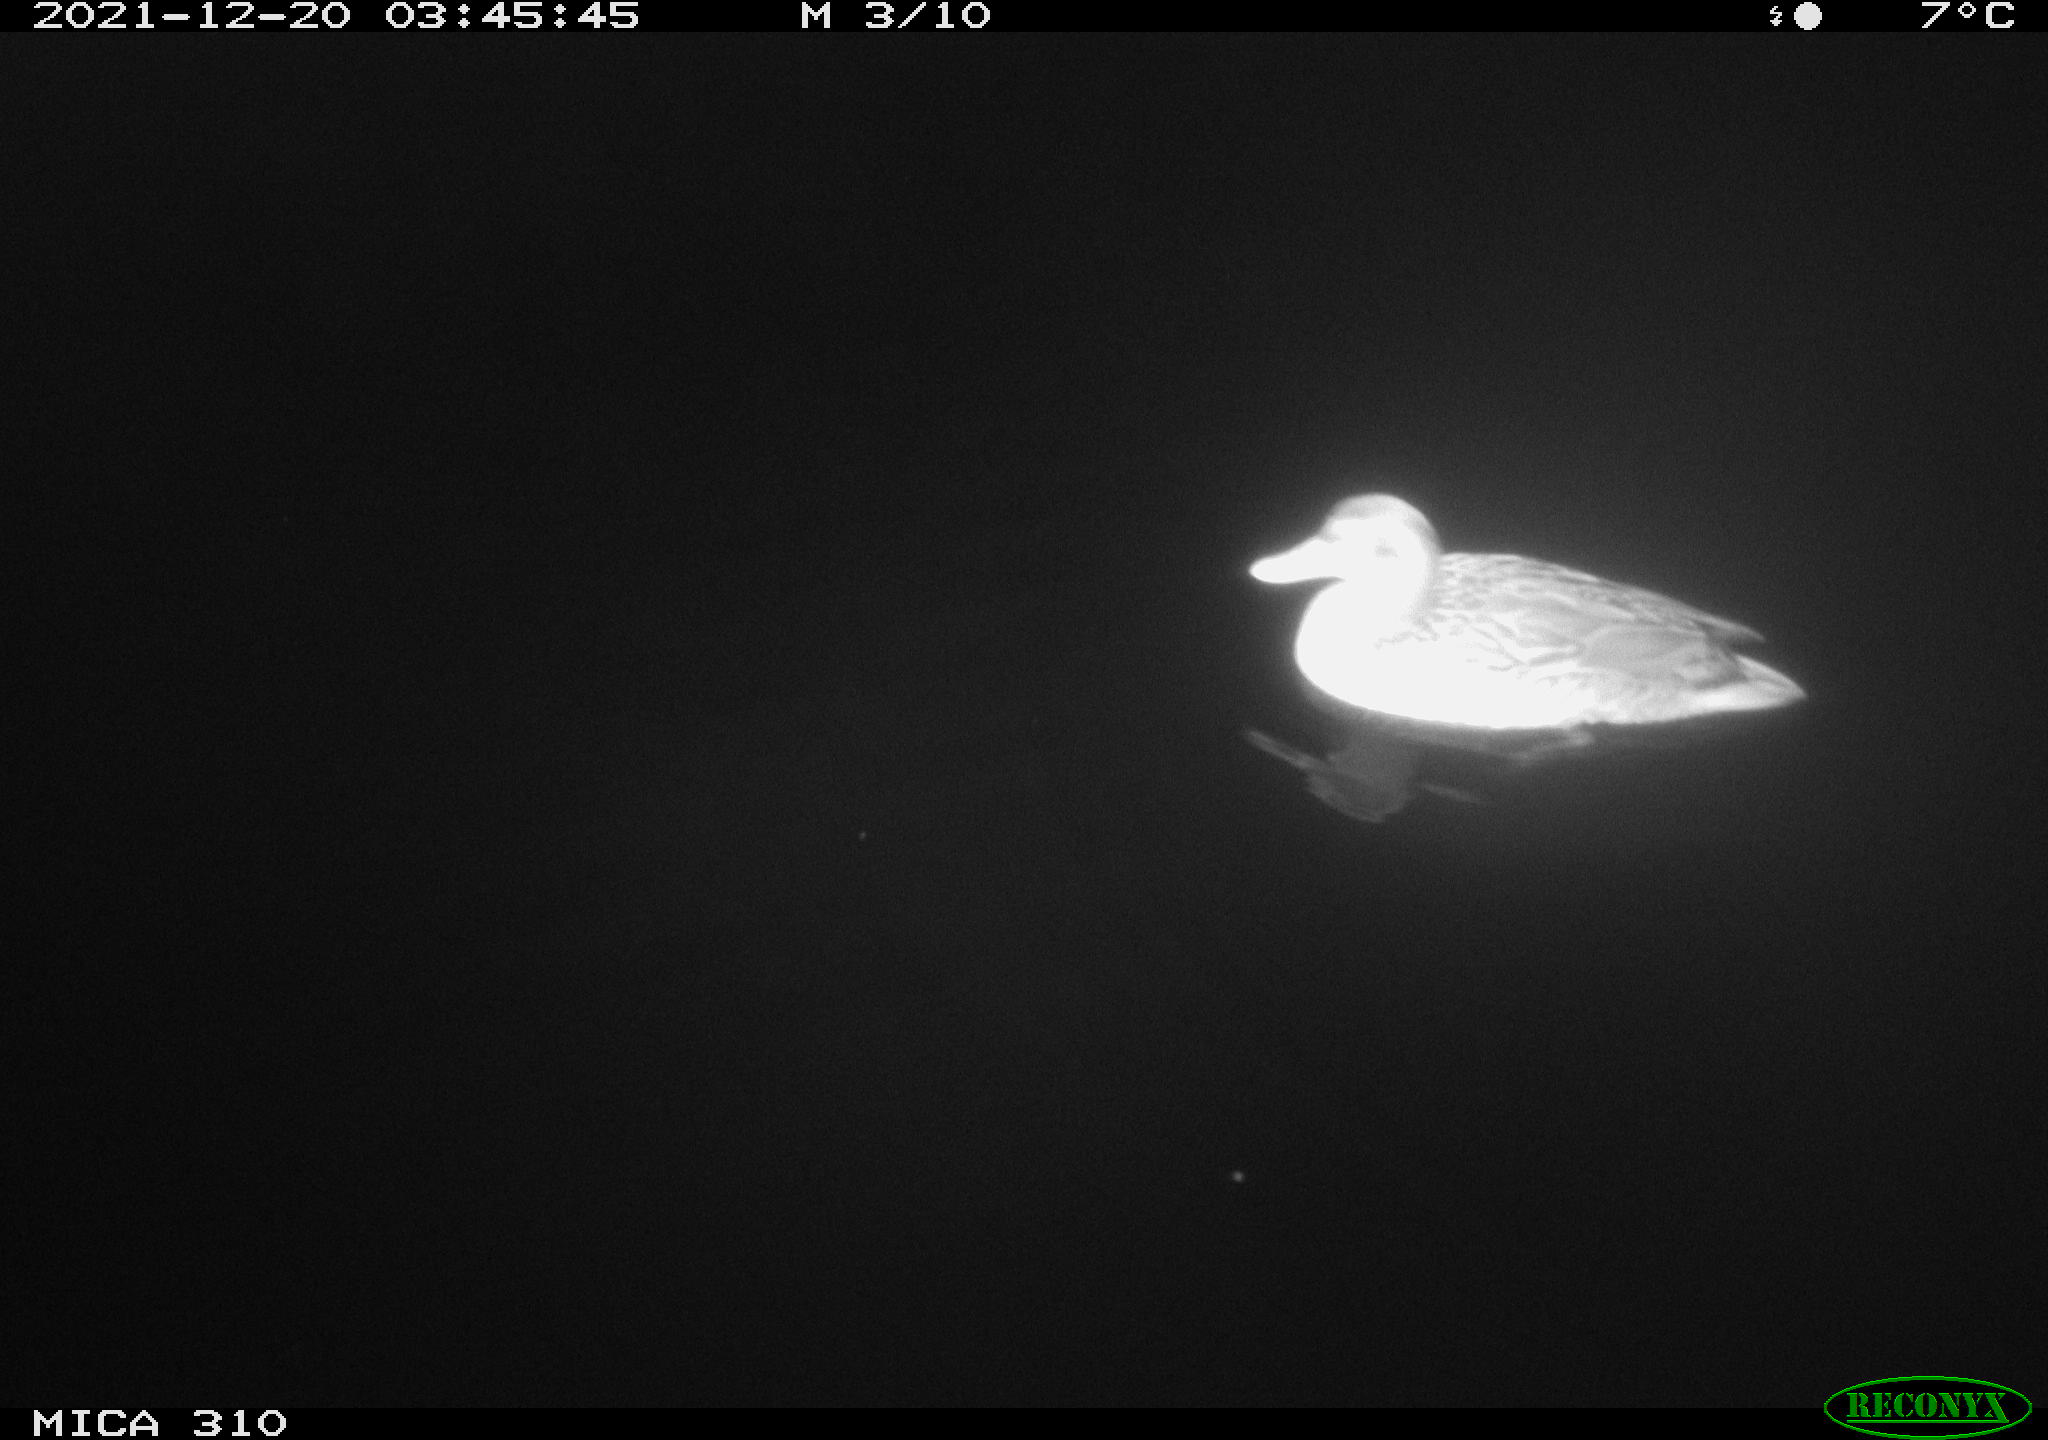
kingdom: Animalia
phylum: Chordata
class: Aves
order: Anseriformes
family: Anatidae
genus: Anas
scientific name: Anas platyrhynchos
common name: Mallard
